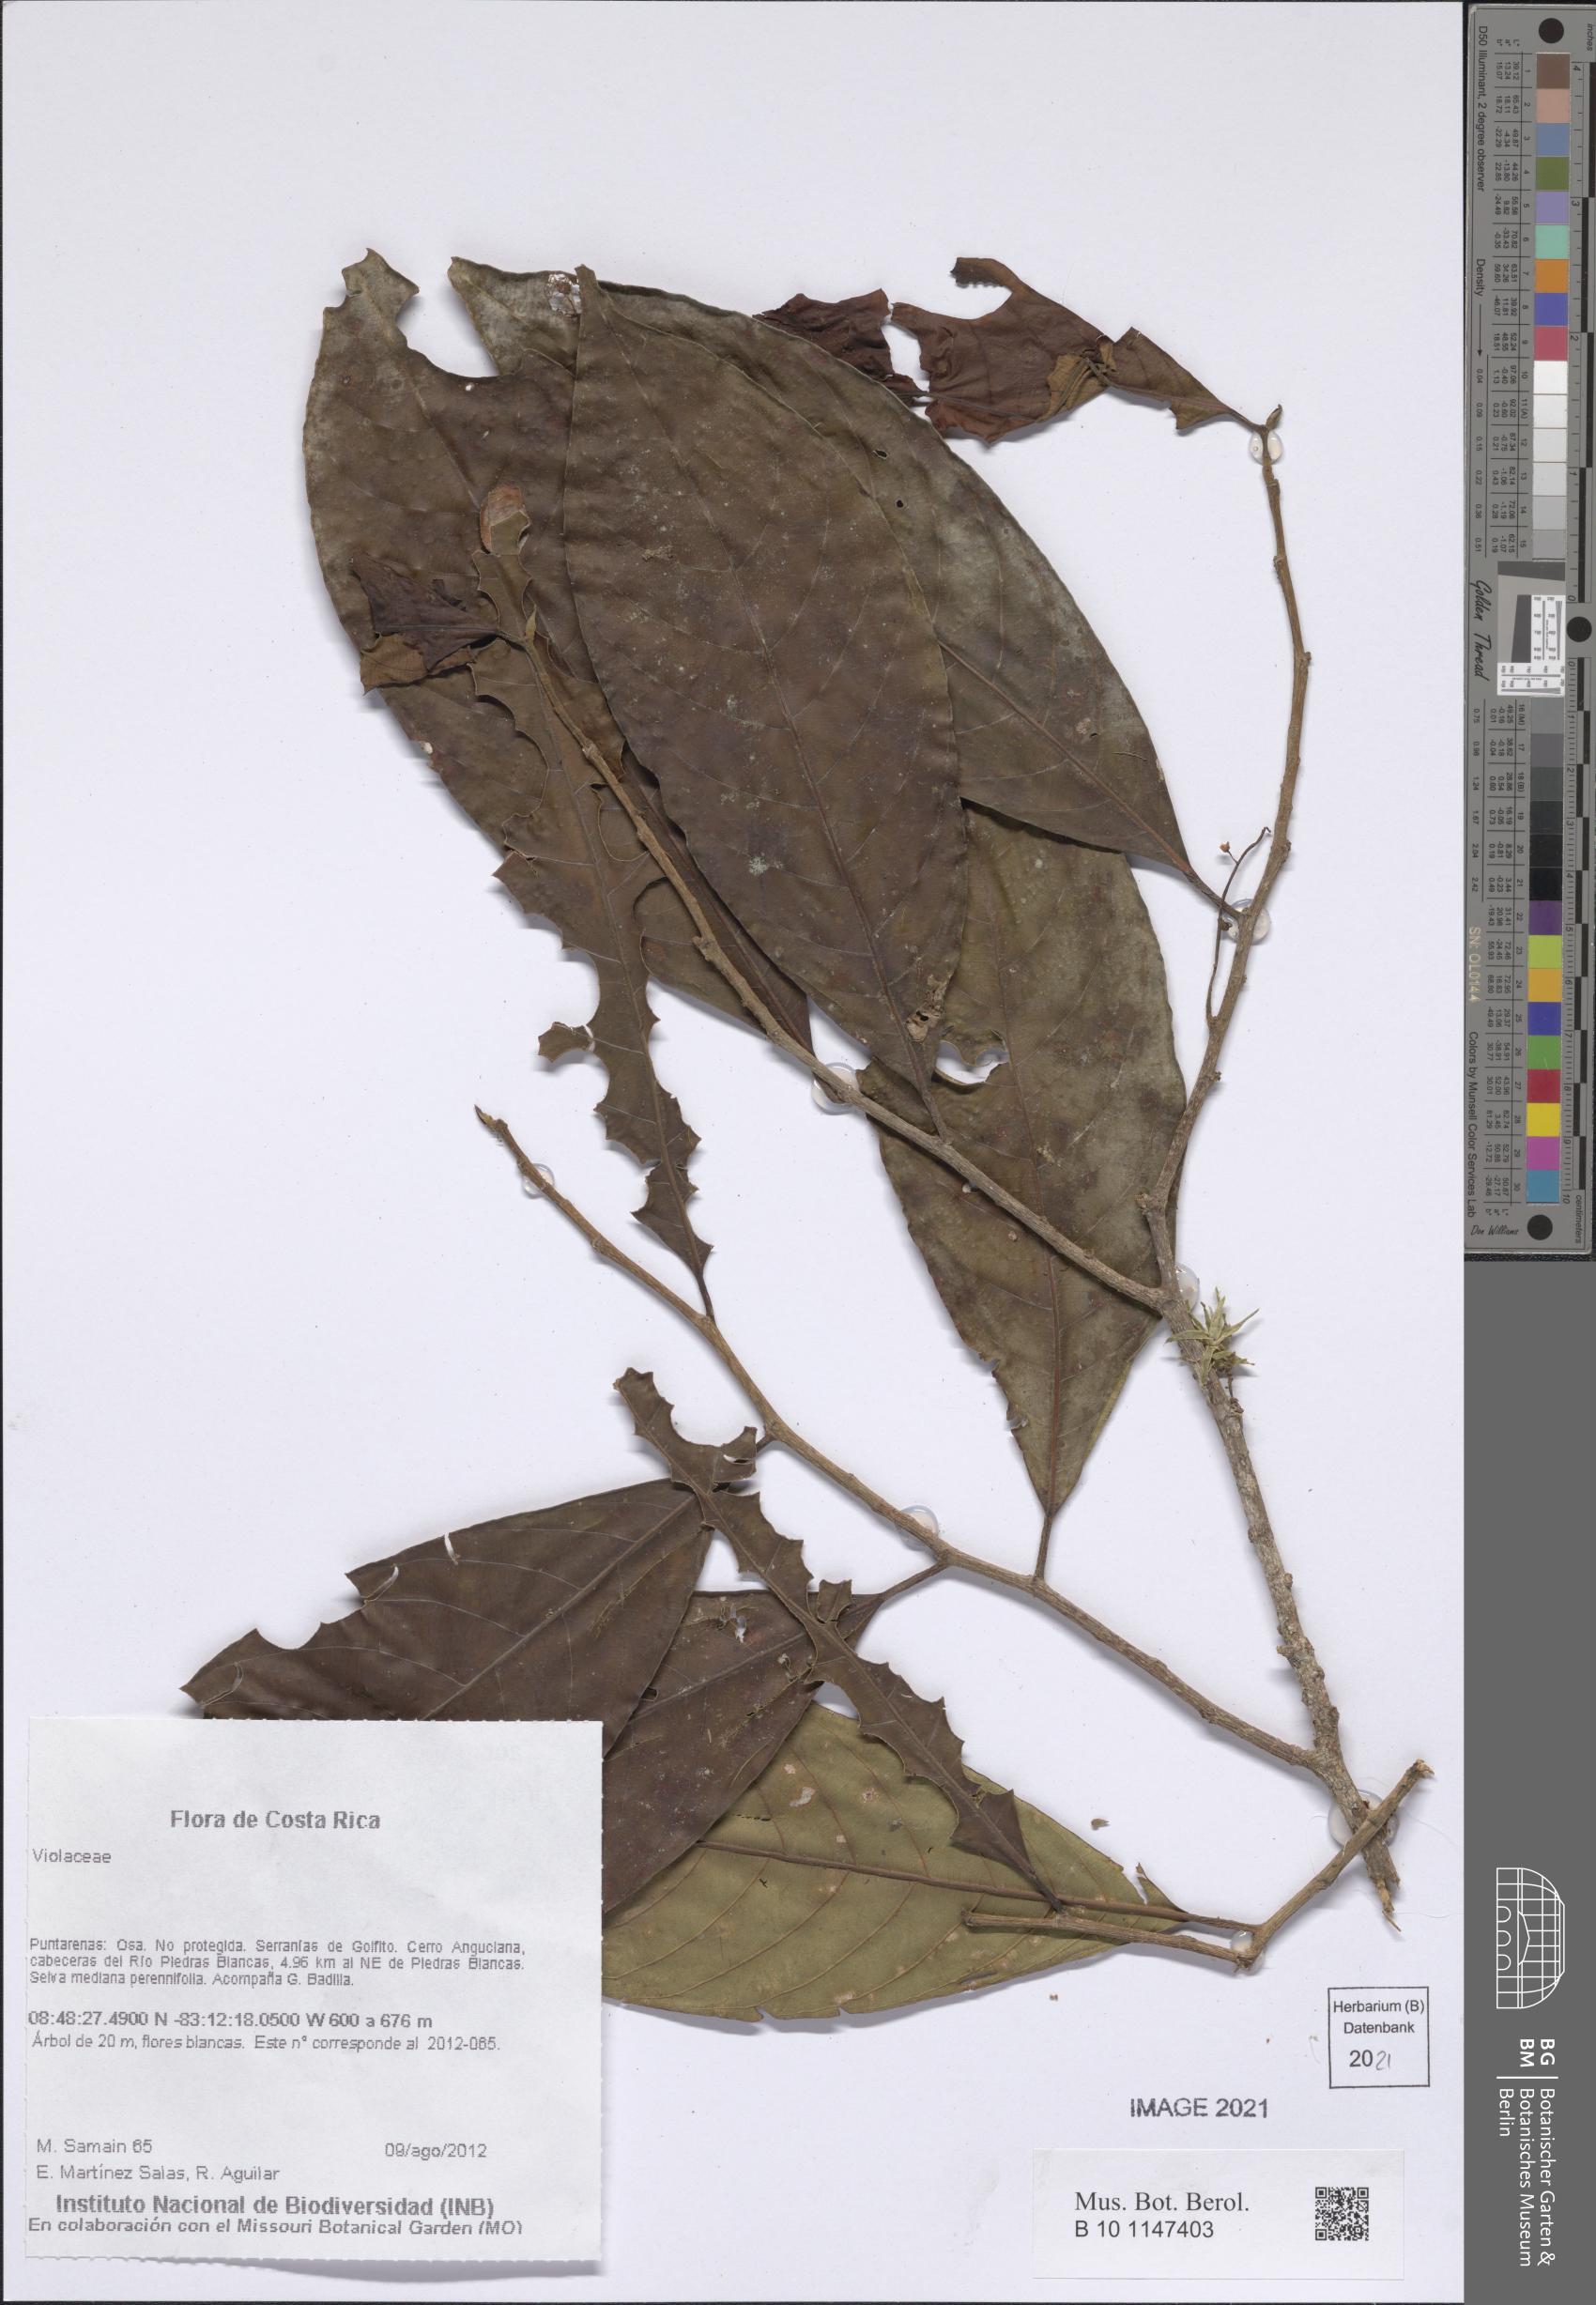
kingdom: Plantae
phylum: Tracheophyta
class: Magnoliopsida
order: Malpighiales
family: Violaceae
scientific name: Violaceae
